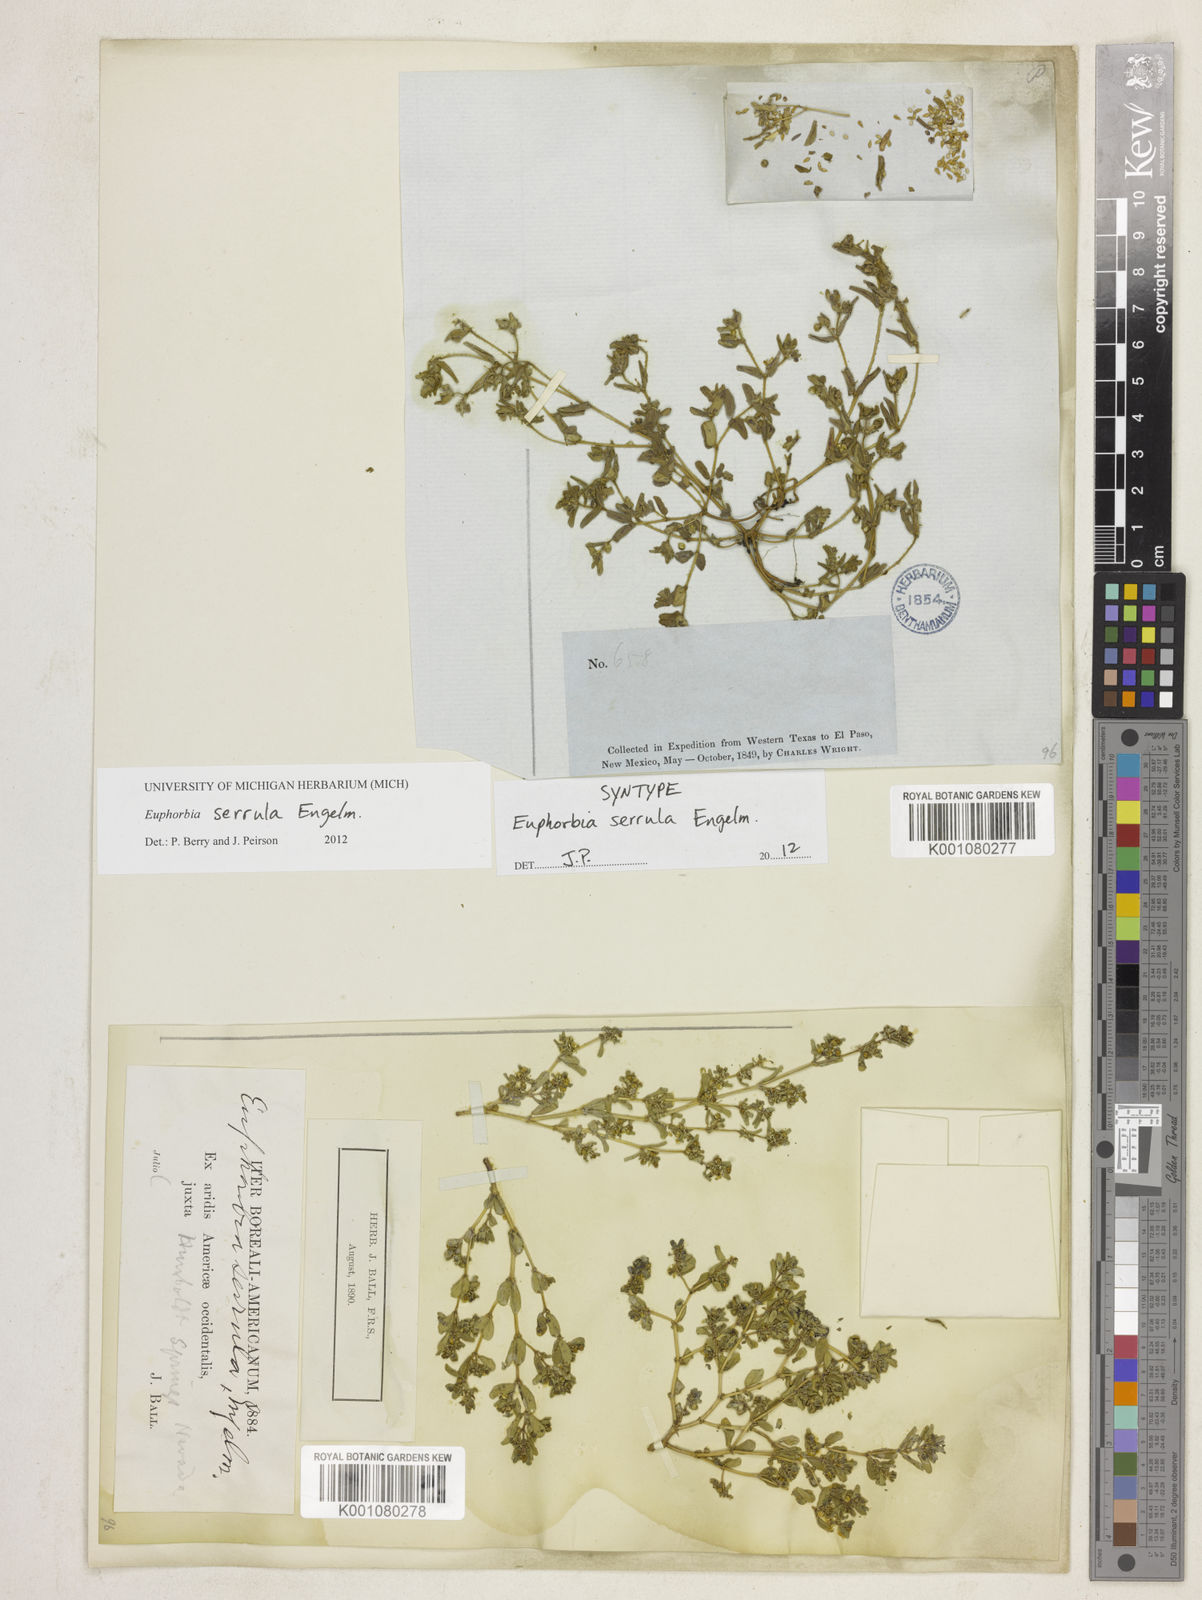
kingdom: Plantae
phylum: Tracheophyta
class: Magnoliopsida
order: Malpighiales
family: Euphorbiaceae
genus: Euphorbia
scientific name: Euphorbia serrula
